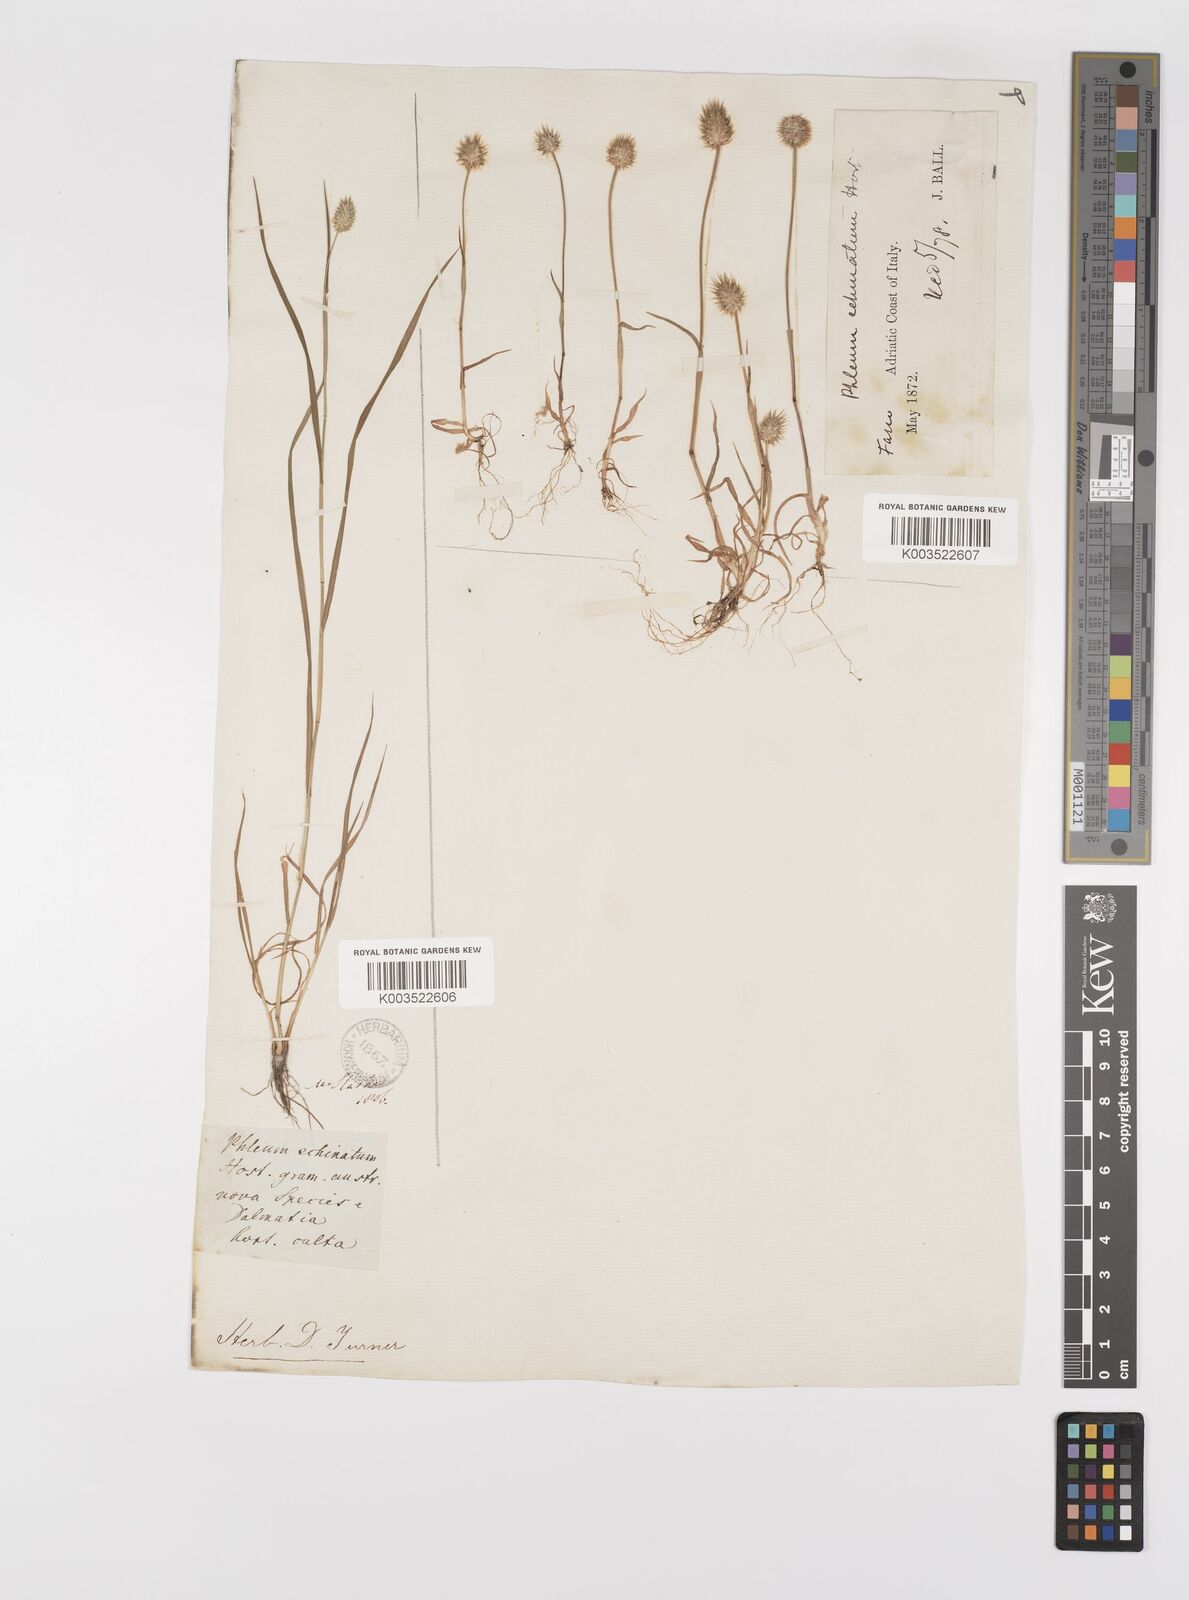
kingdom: Plantae
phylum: Tracheophyta
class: Liliopsida
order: Poales
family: Poaceae
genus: Phleum
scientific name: Phleum echinatum
